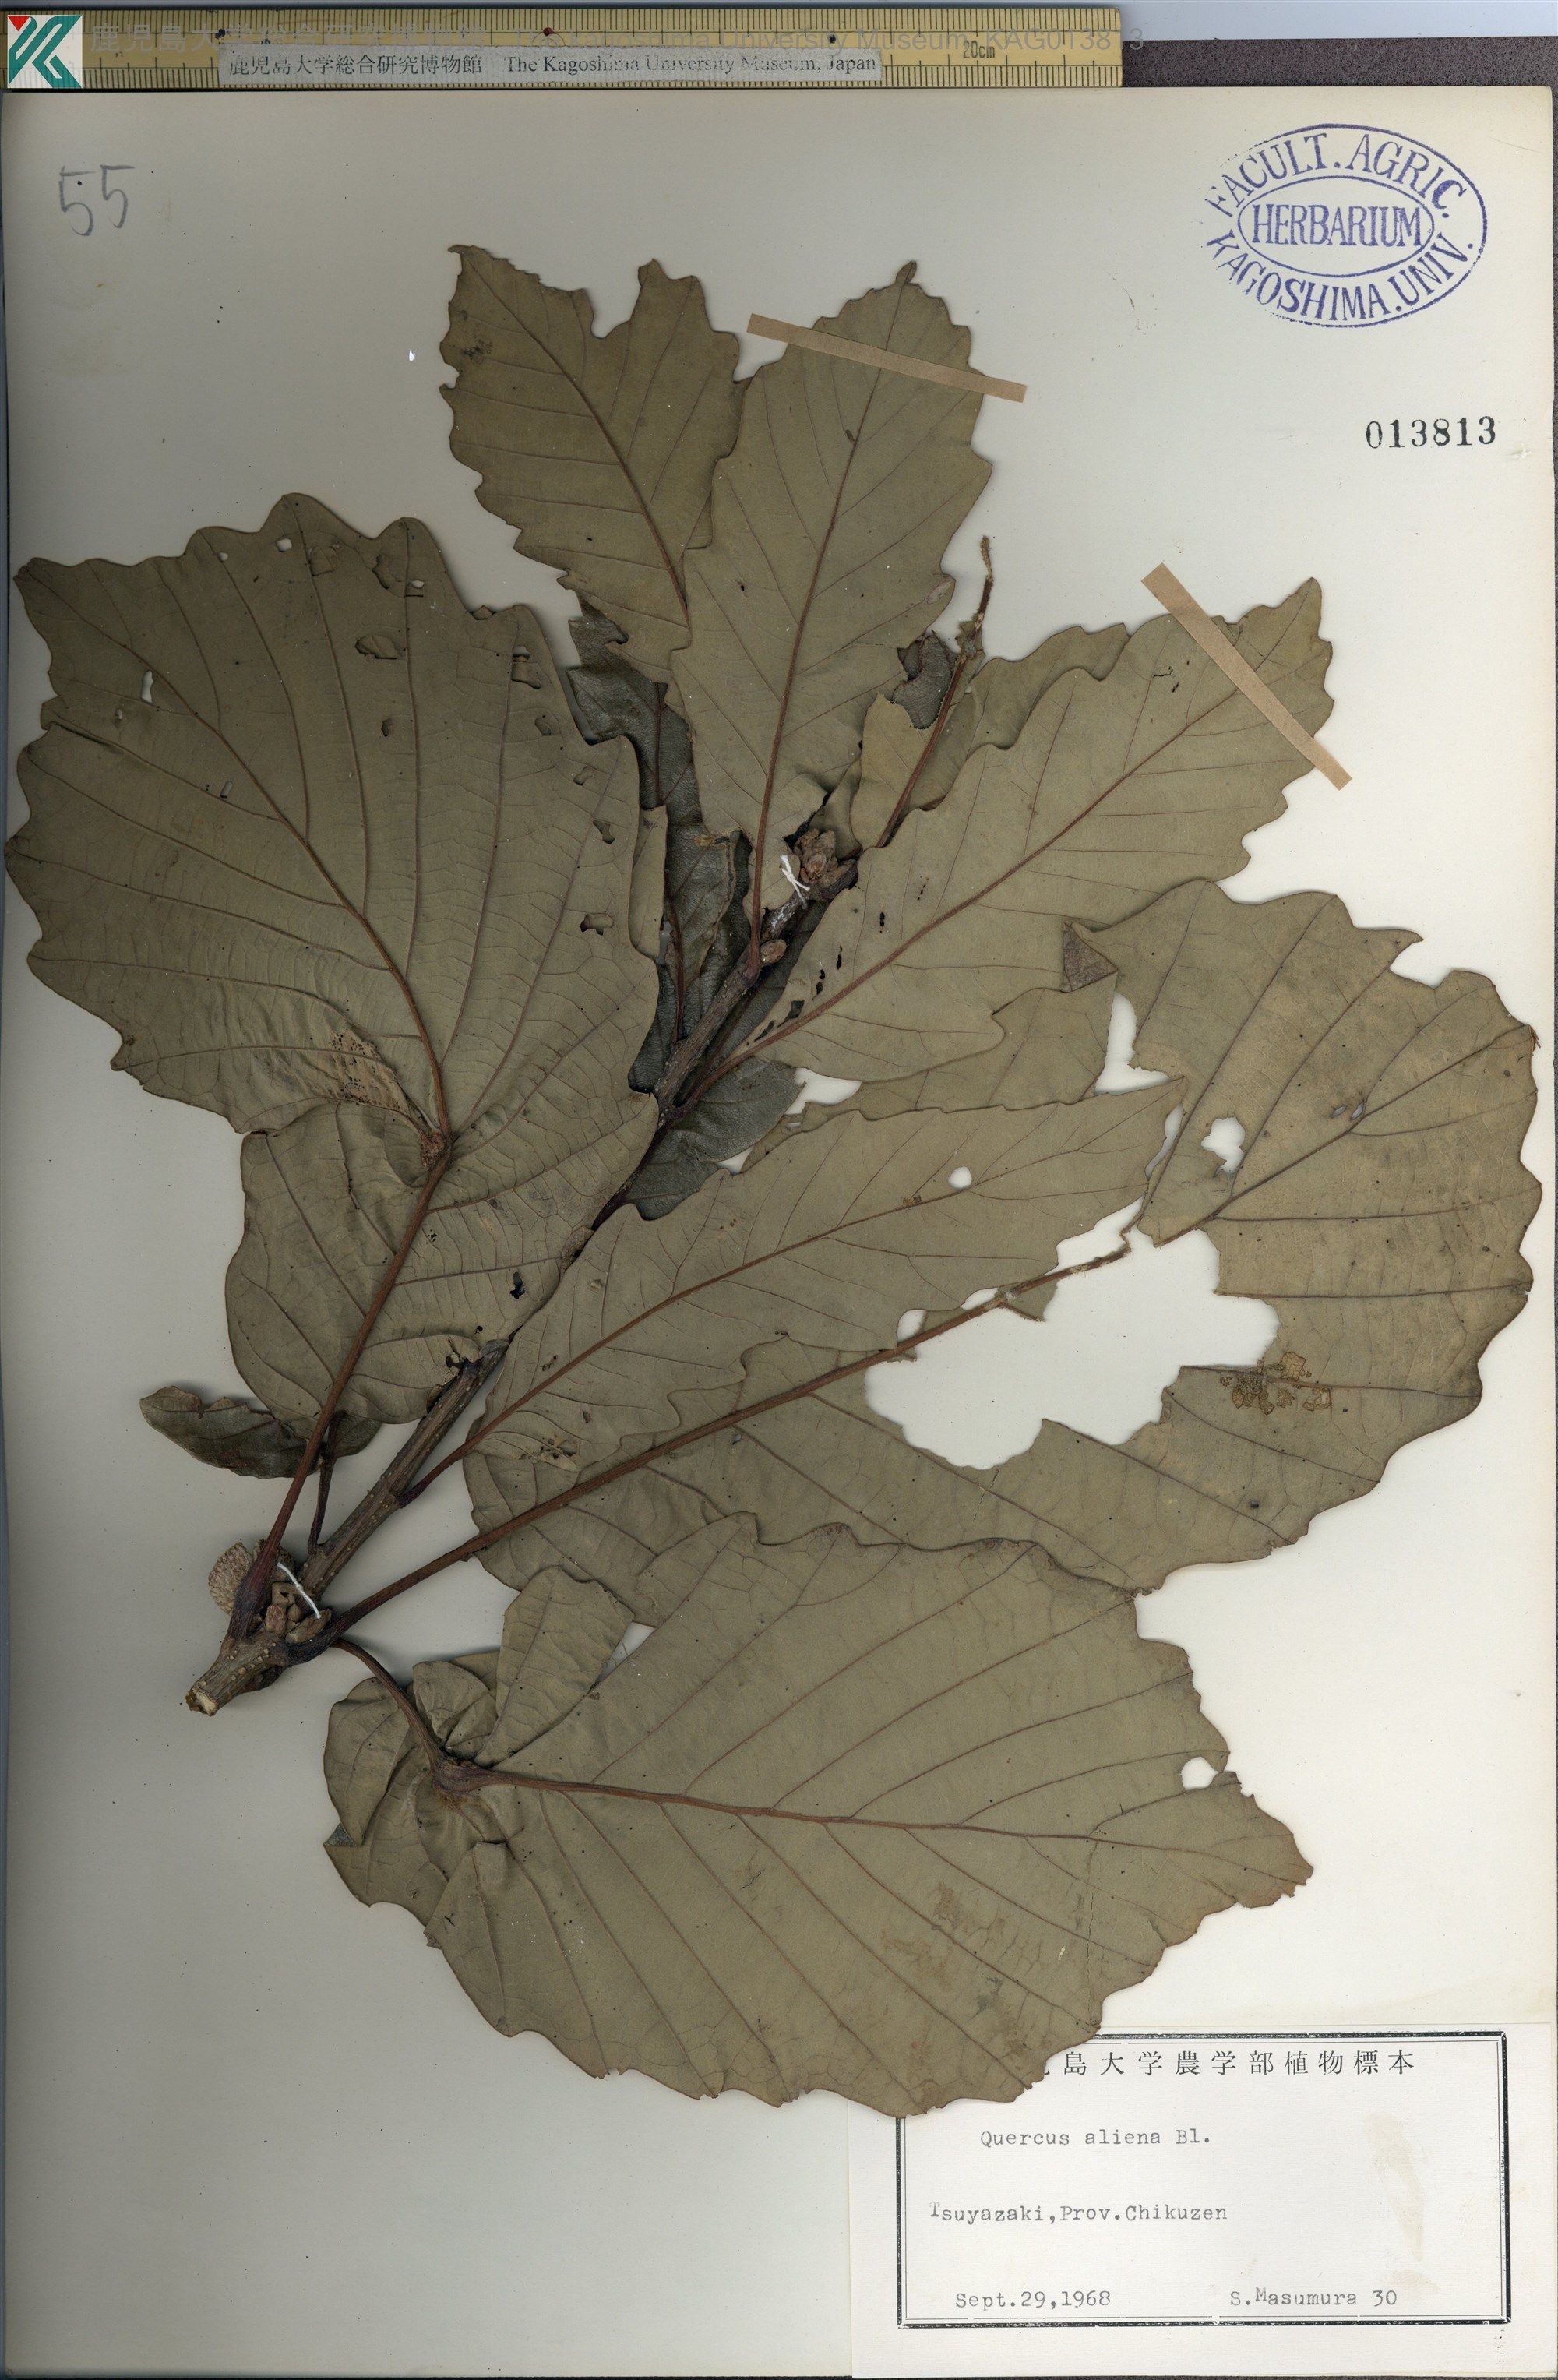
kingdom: Plantae
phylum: Tracheophyta
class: Magnoliopsida
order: Fagales
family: Fagaceae
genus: Quercus
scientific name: Quercus aliena
